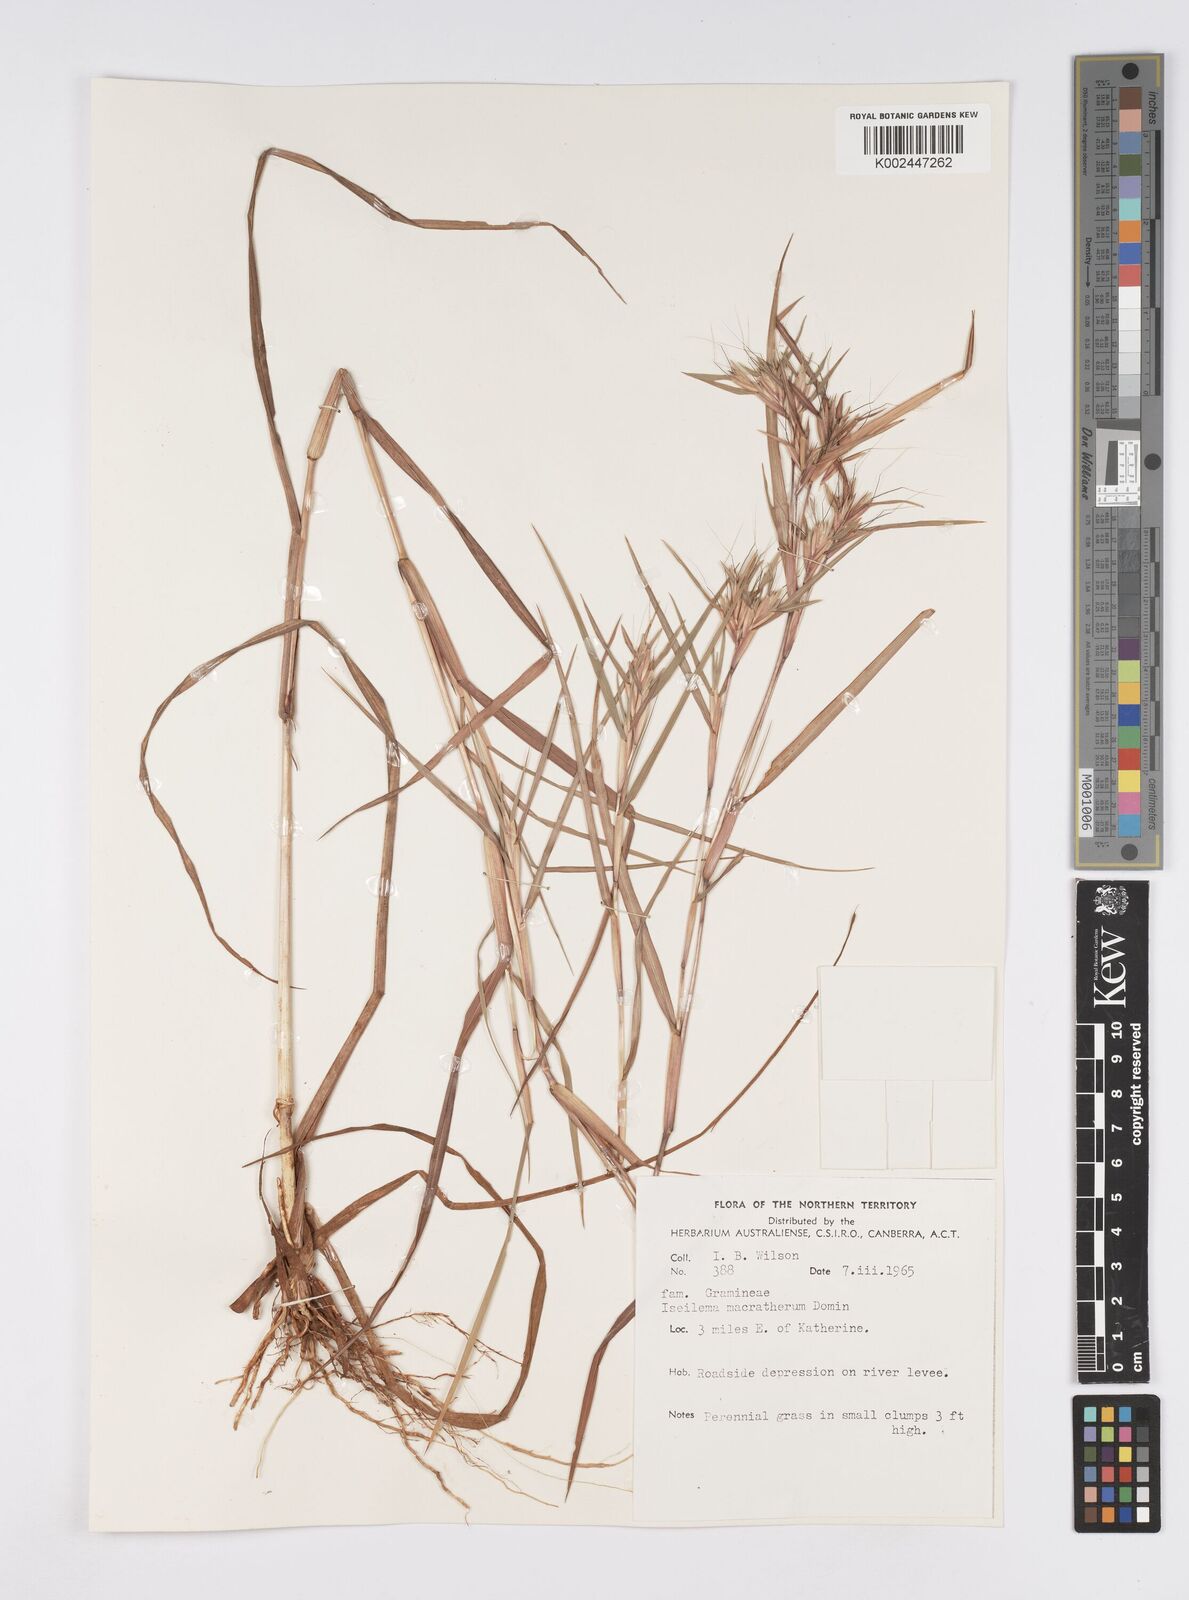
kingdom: Plantae
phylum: Tracheophyta
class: Liliopsida
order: Poales
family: Poaceae
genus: Iseilema
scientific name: Iseilema macratherum
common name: Bull flinders grass
